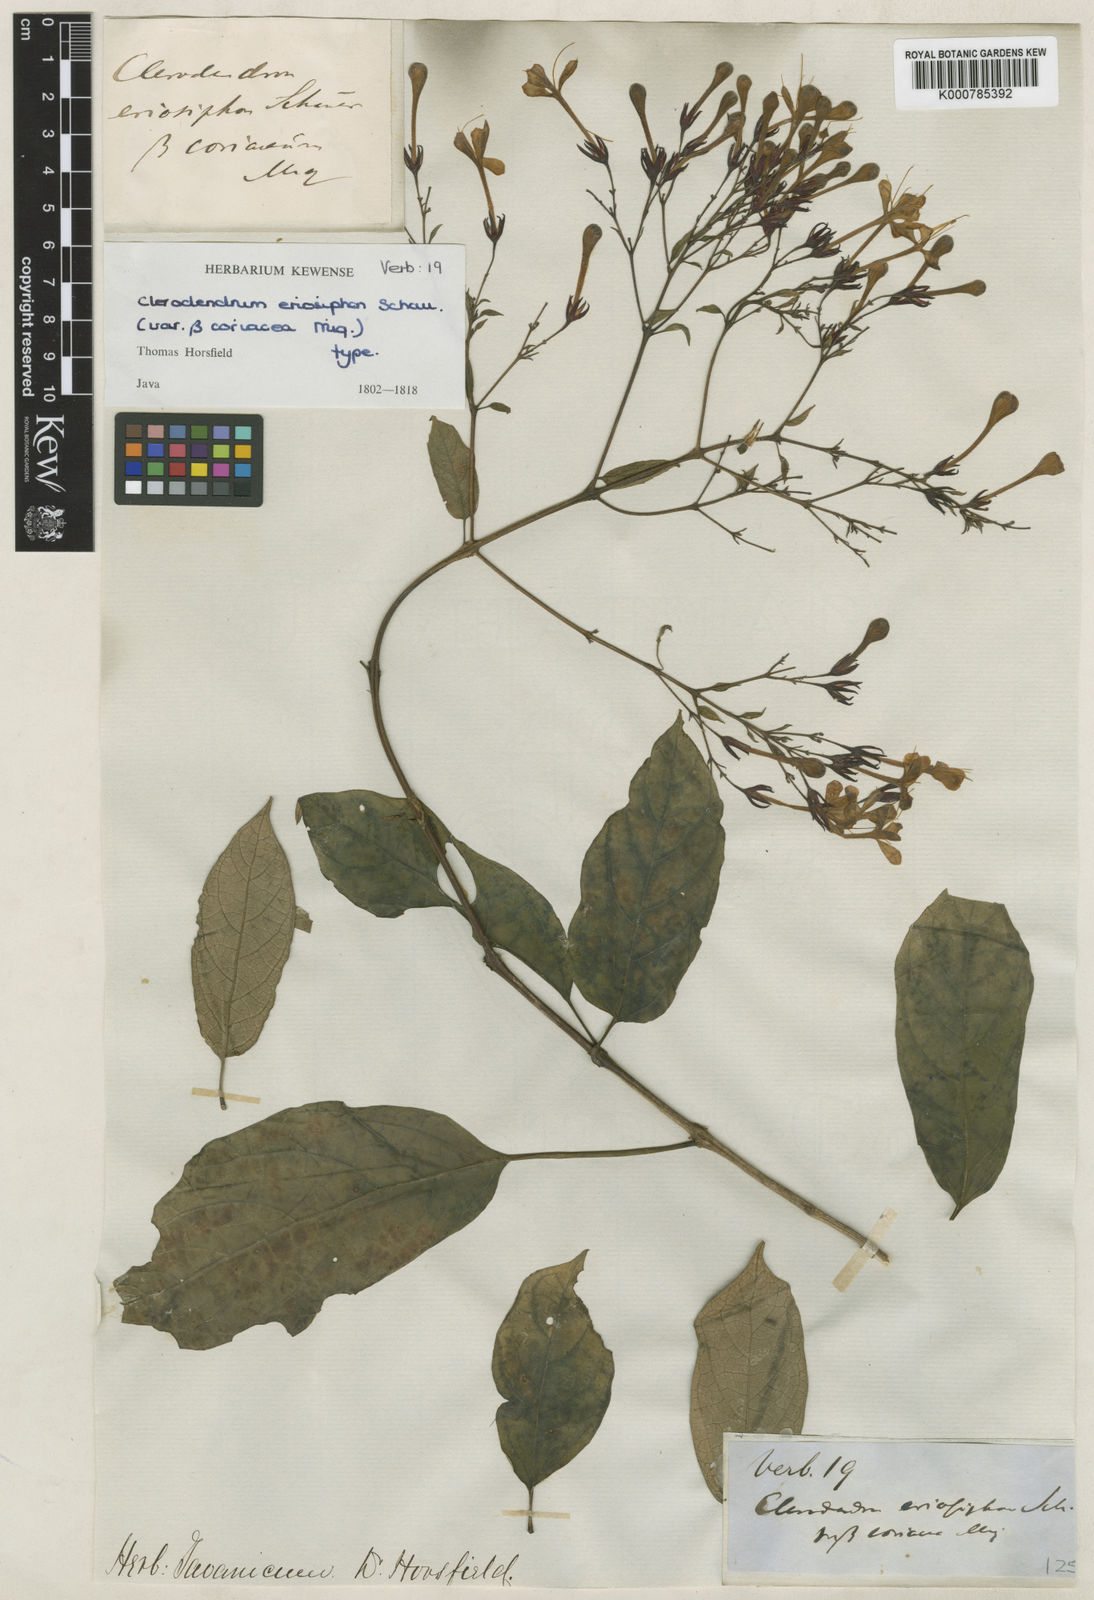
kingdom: Plantae
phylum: Tracheophyta
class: Magnoliopsida
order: Lamiales
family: Lamiaceae
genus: Clerodendrum
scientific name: Clerodendrum disparifolium
